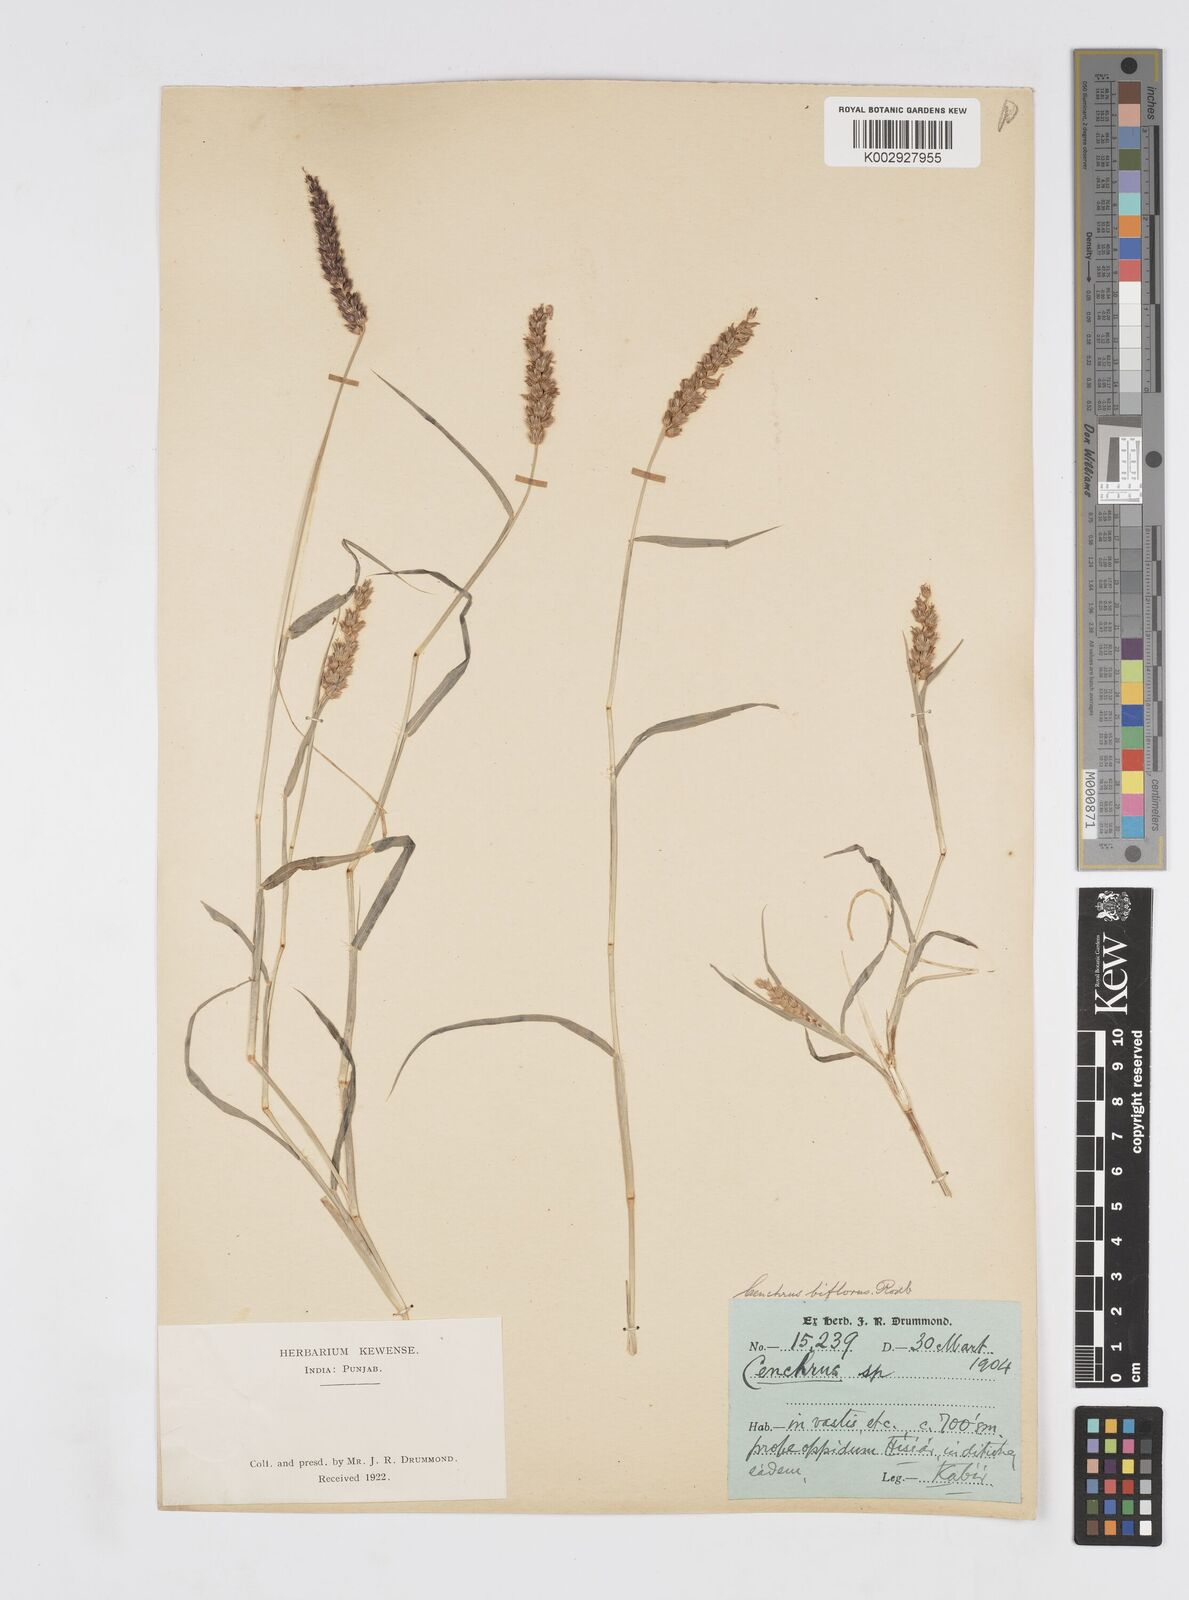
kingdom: Plantae
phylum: Tracheophyta
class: Liliopsida
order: Poales
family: Poaceae
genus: Cenchrus
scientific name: Cenchrus setigerus
